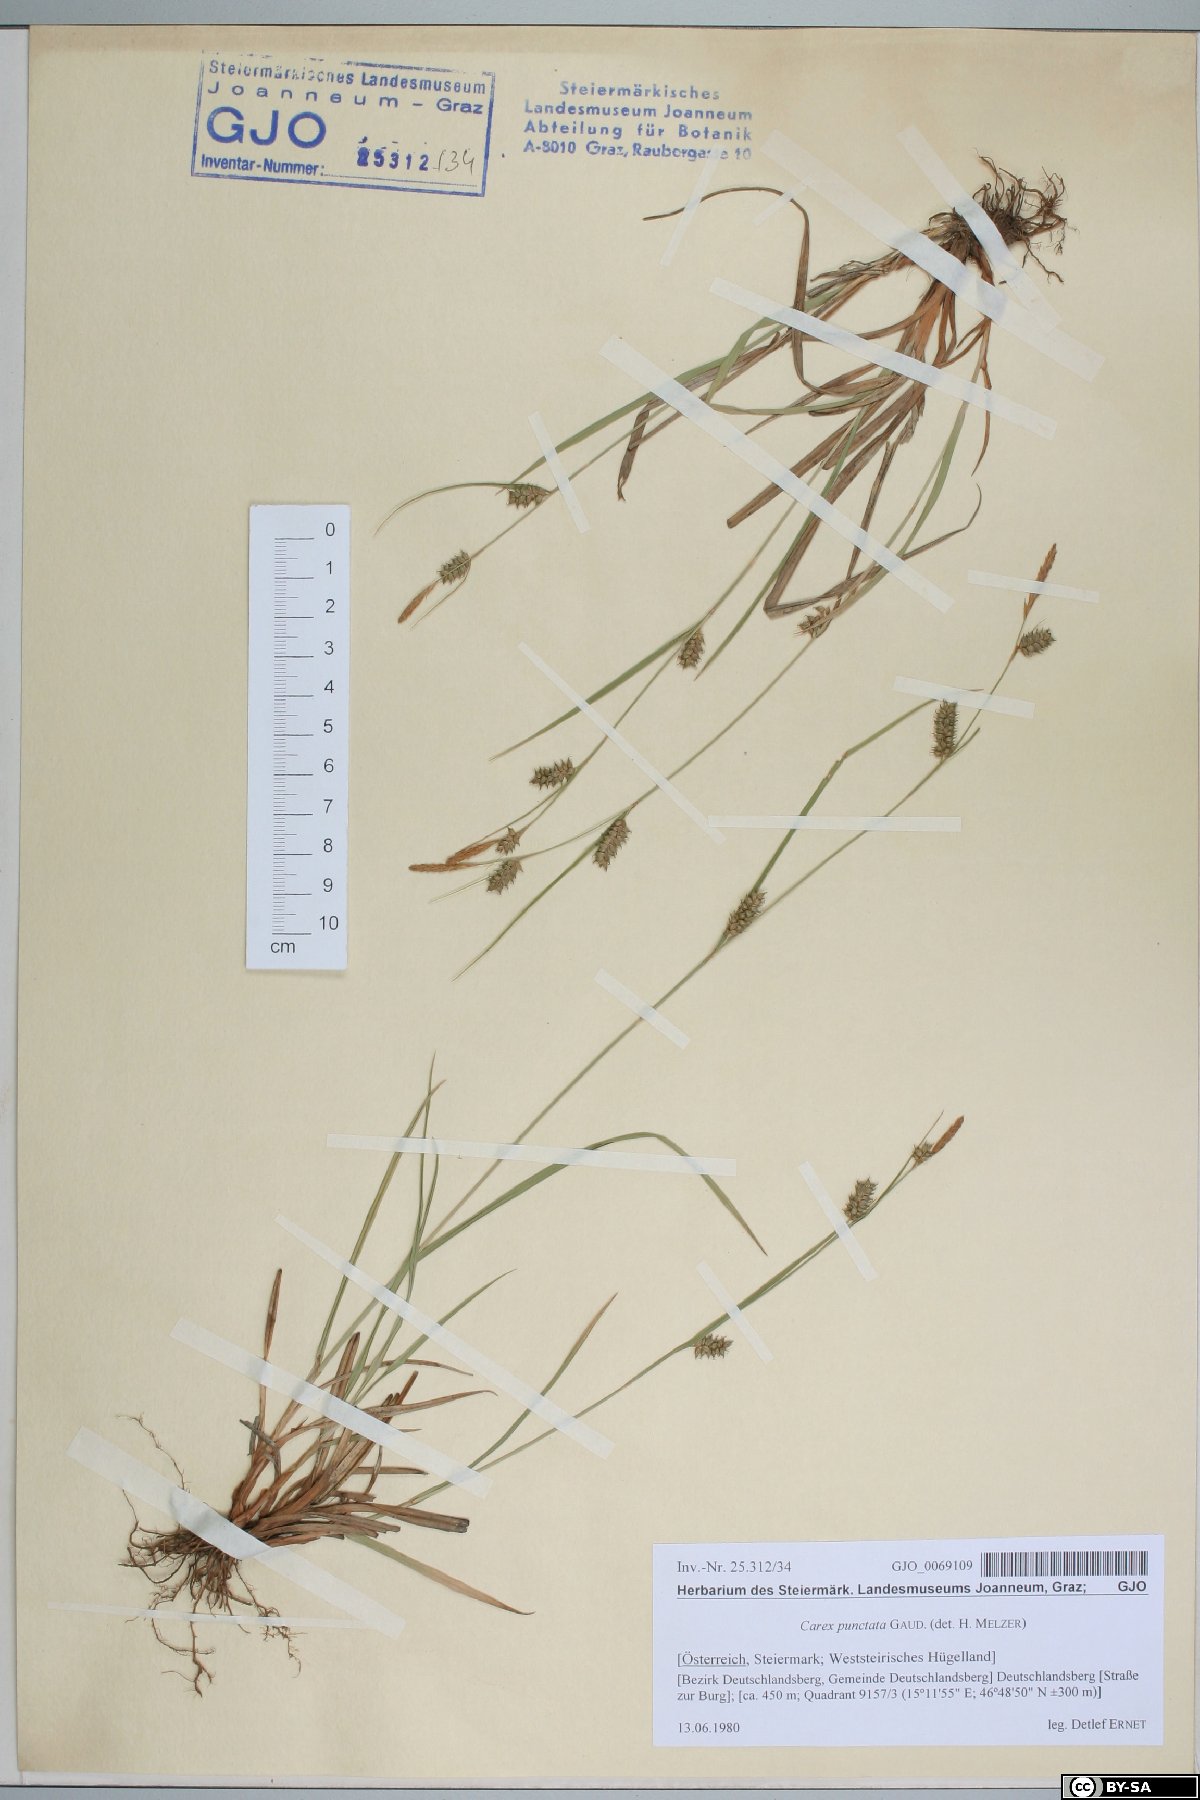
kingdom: Plantae
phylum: Tracheophyta
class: Liliopsida
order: Poales
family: Cyperaceae
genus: Carex
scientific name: Carex punctata
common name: Dotted sedge
